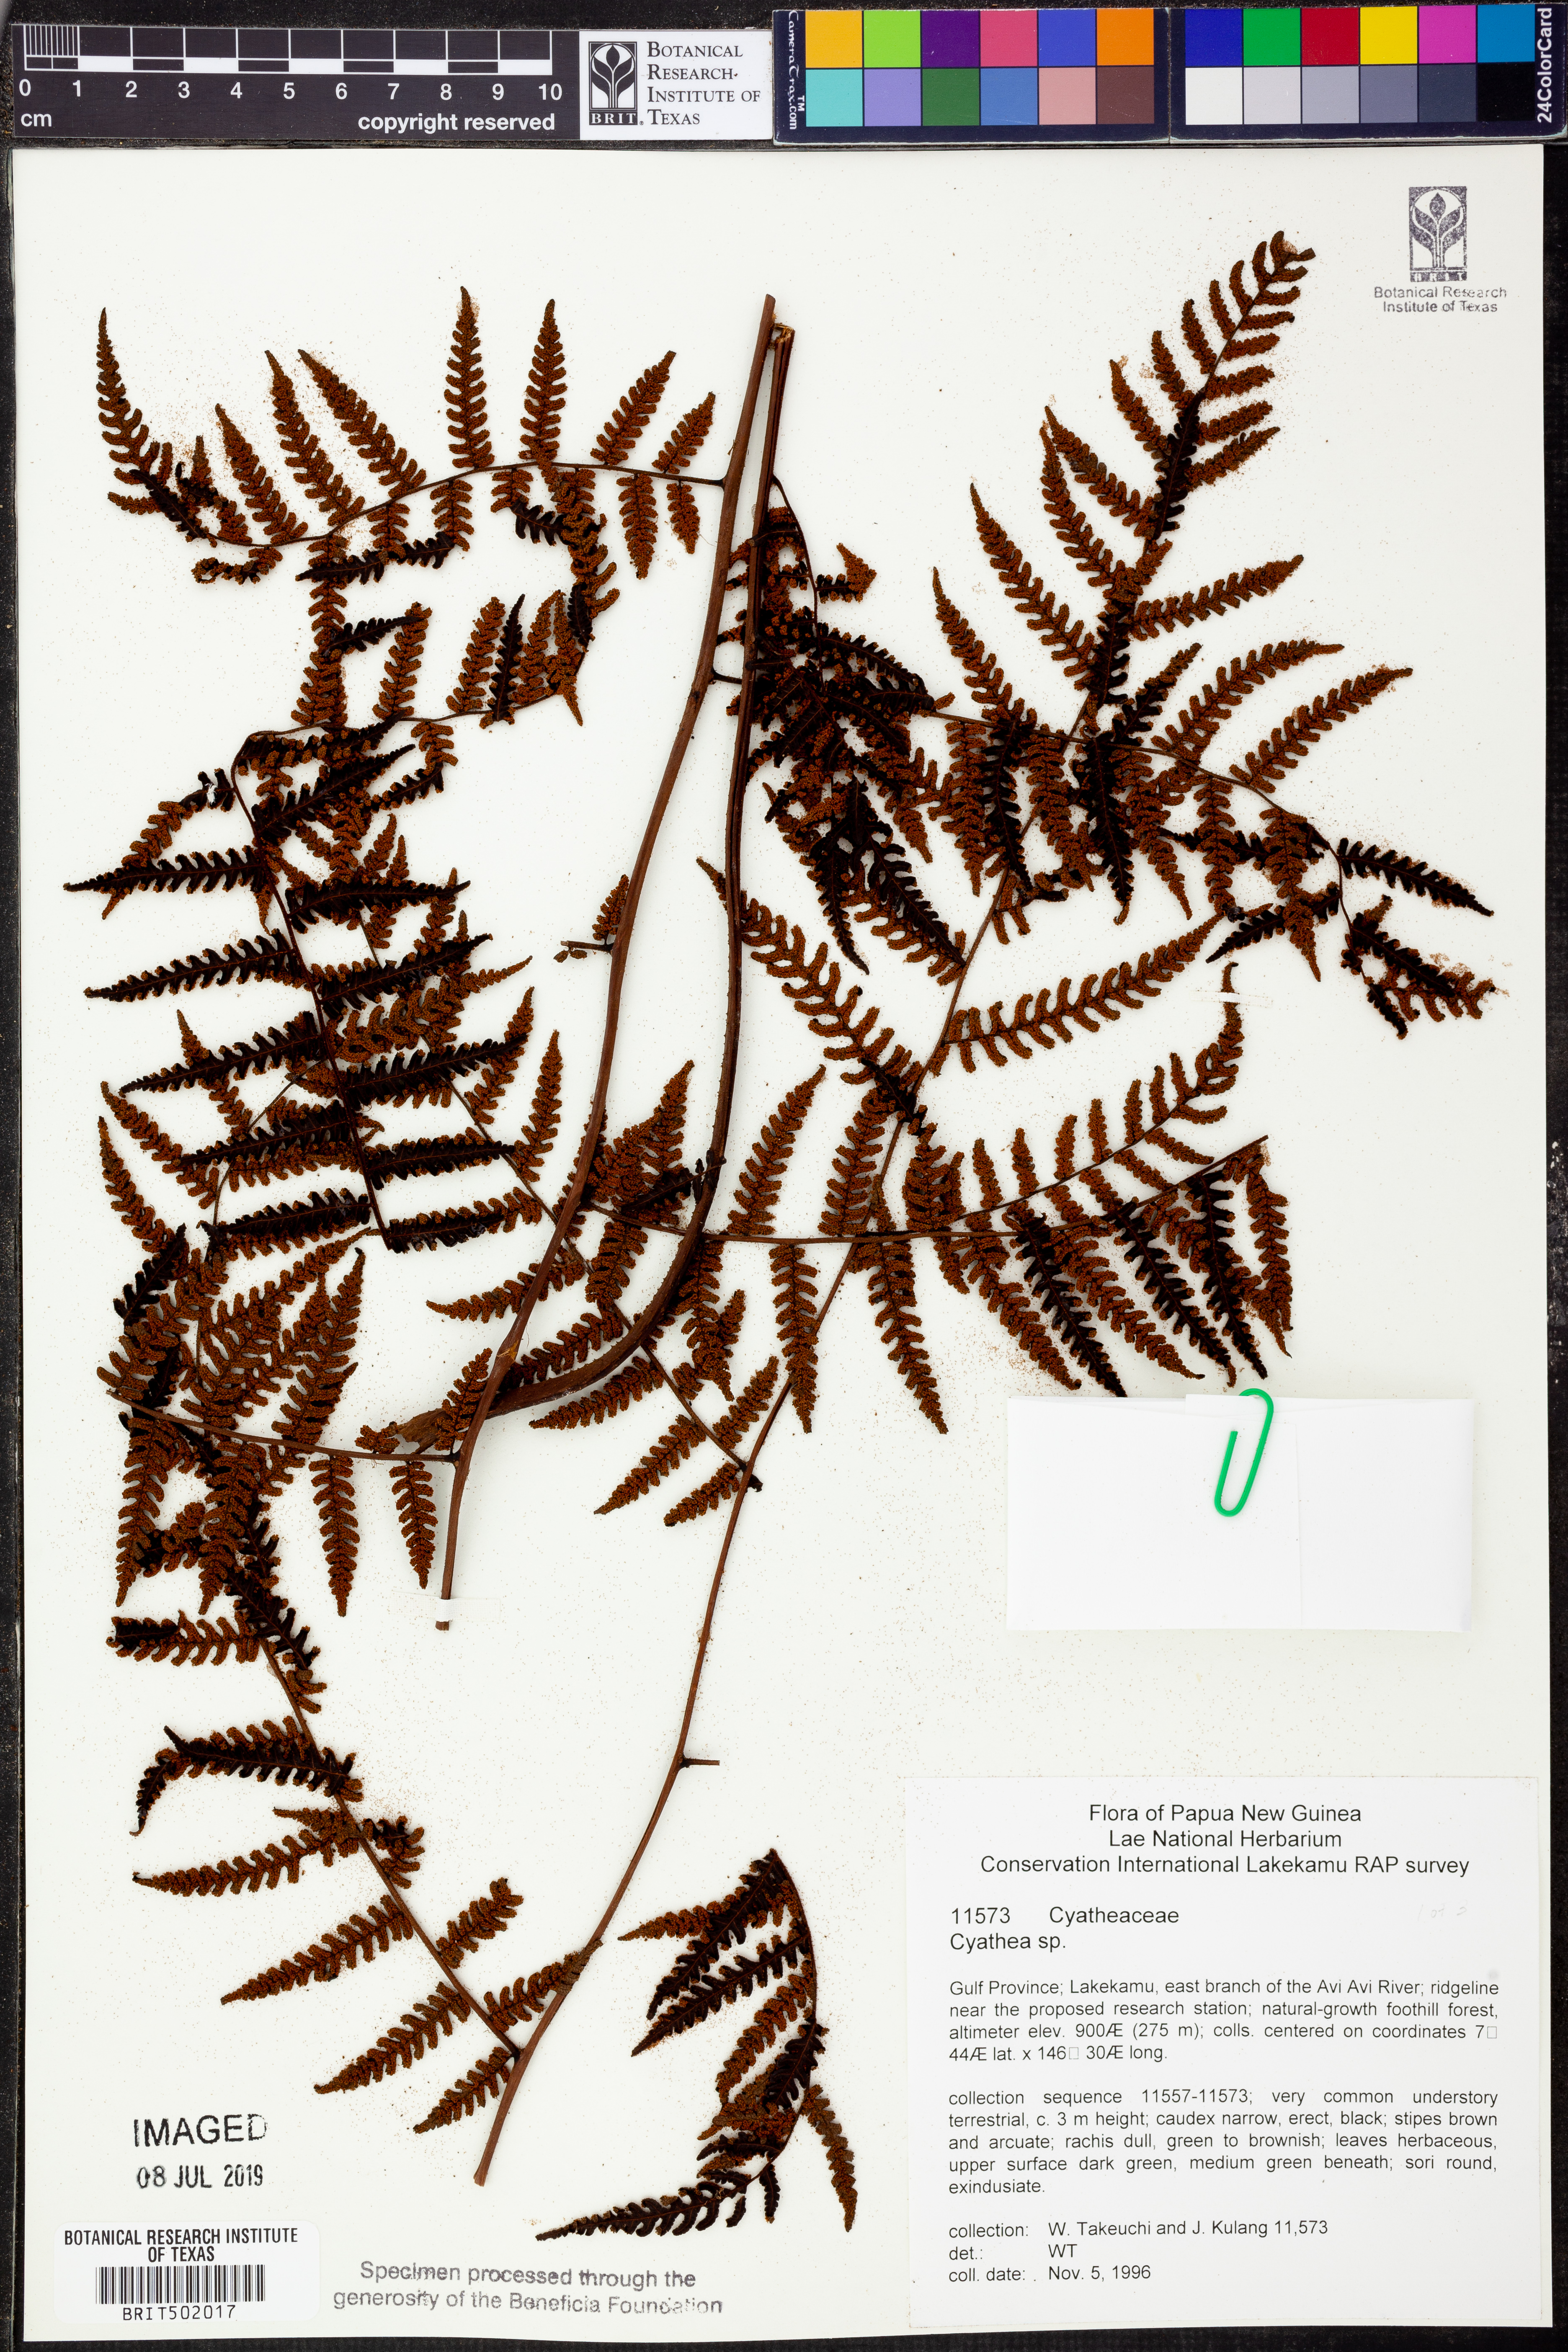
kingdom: Plantae
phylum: Tracheophyta
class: Polypodiopsida
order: Cyatheales
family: Cyatheaceae
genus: Cyathea
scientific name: Cyathea
